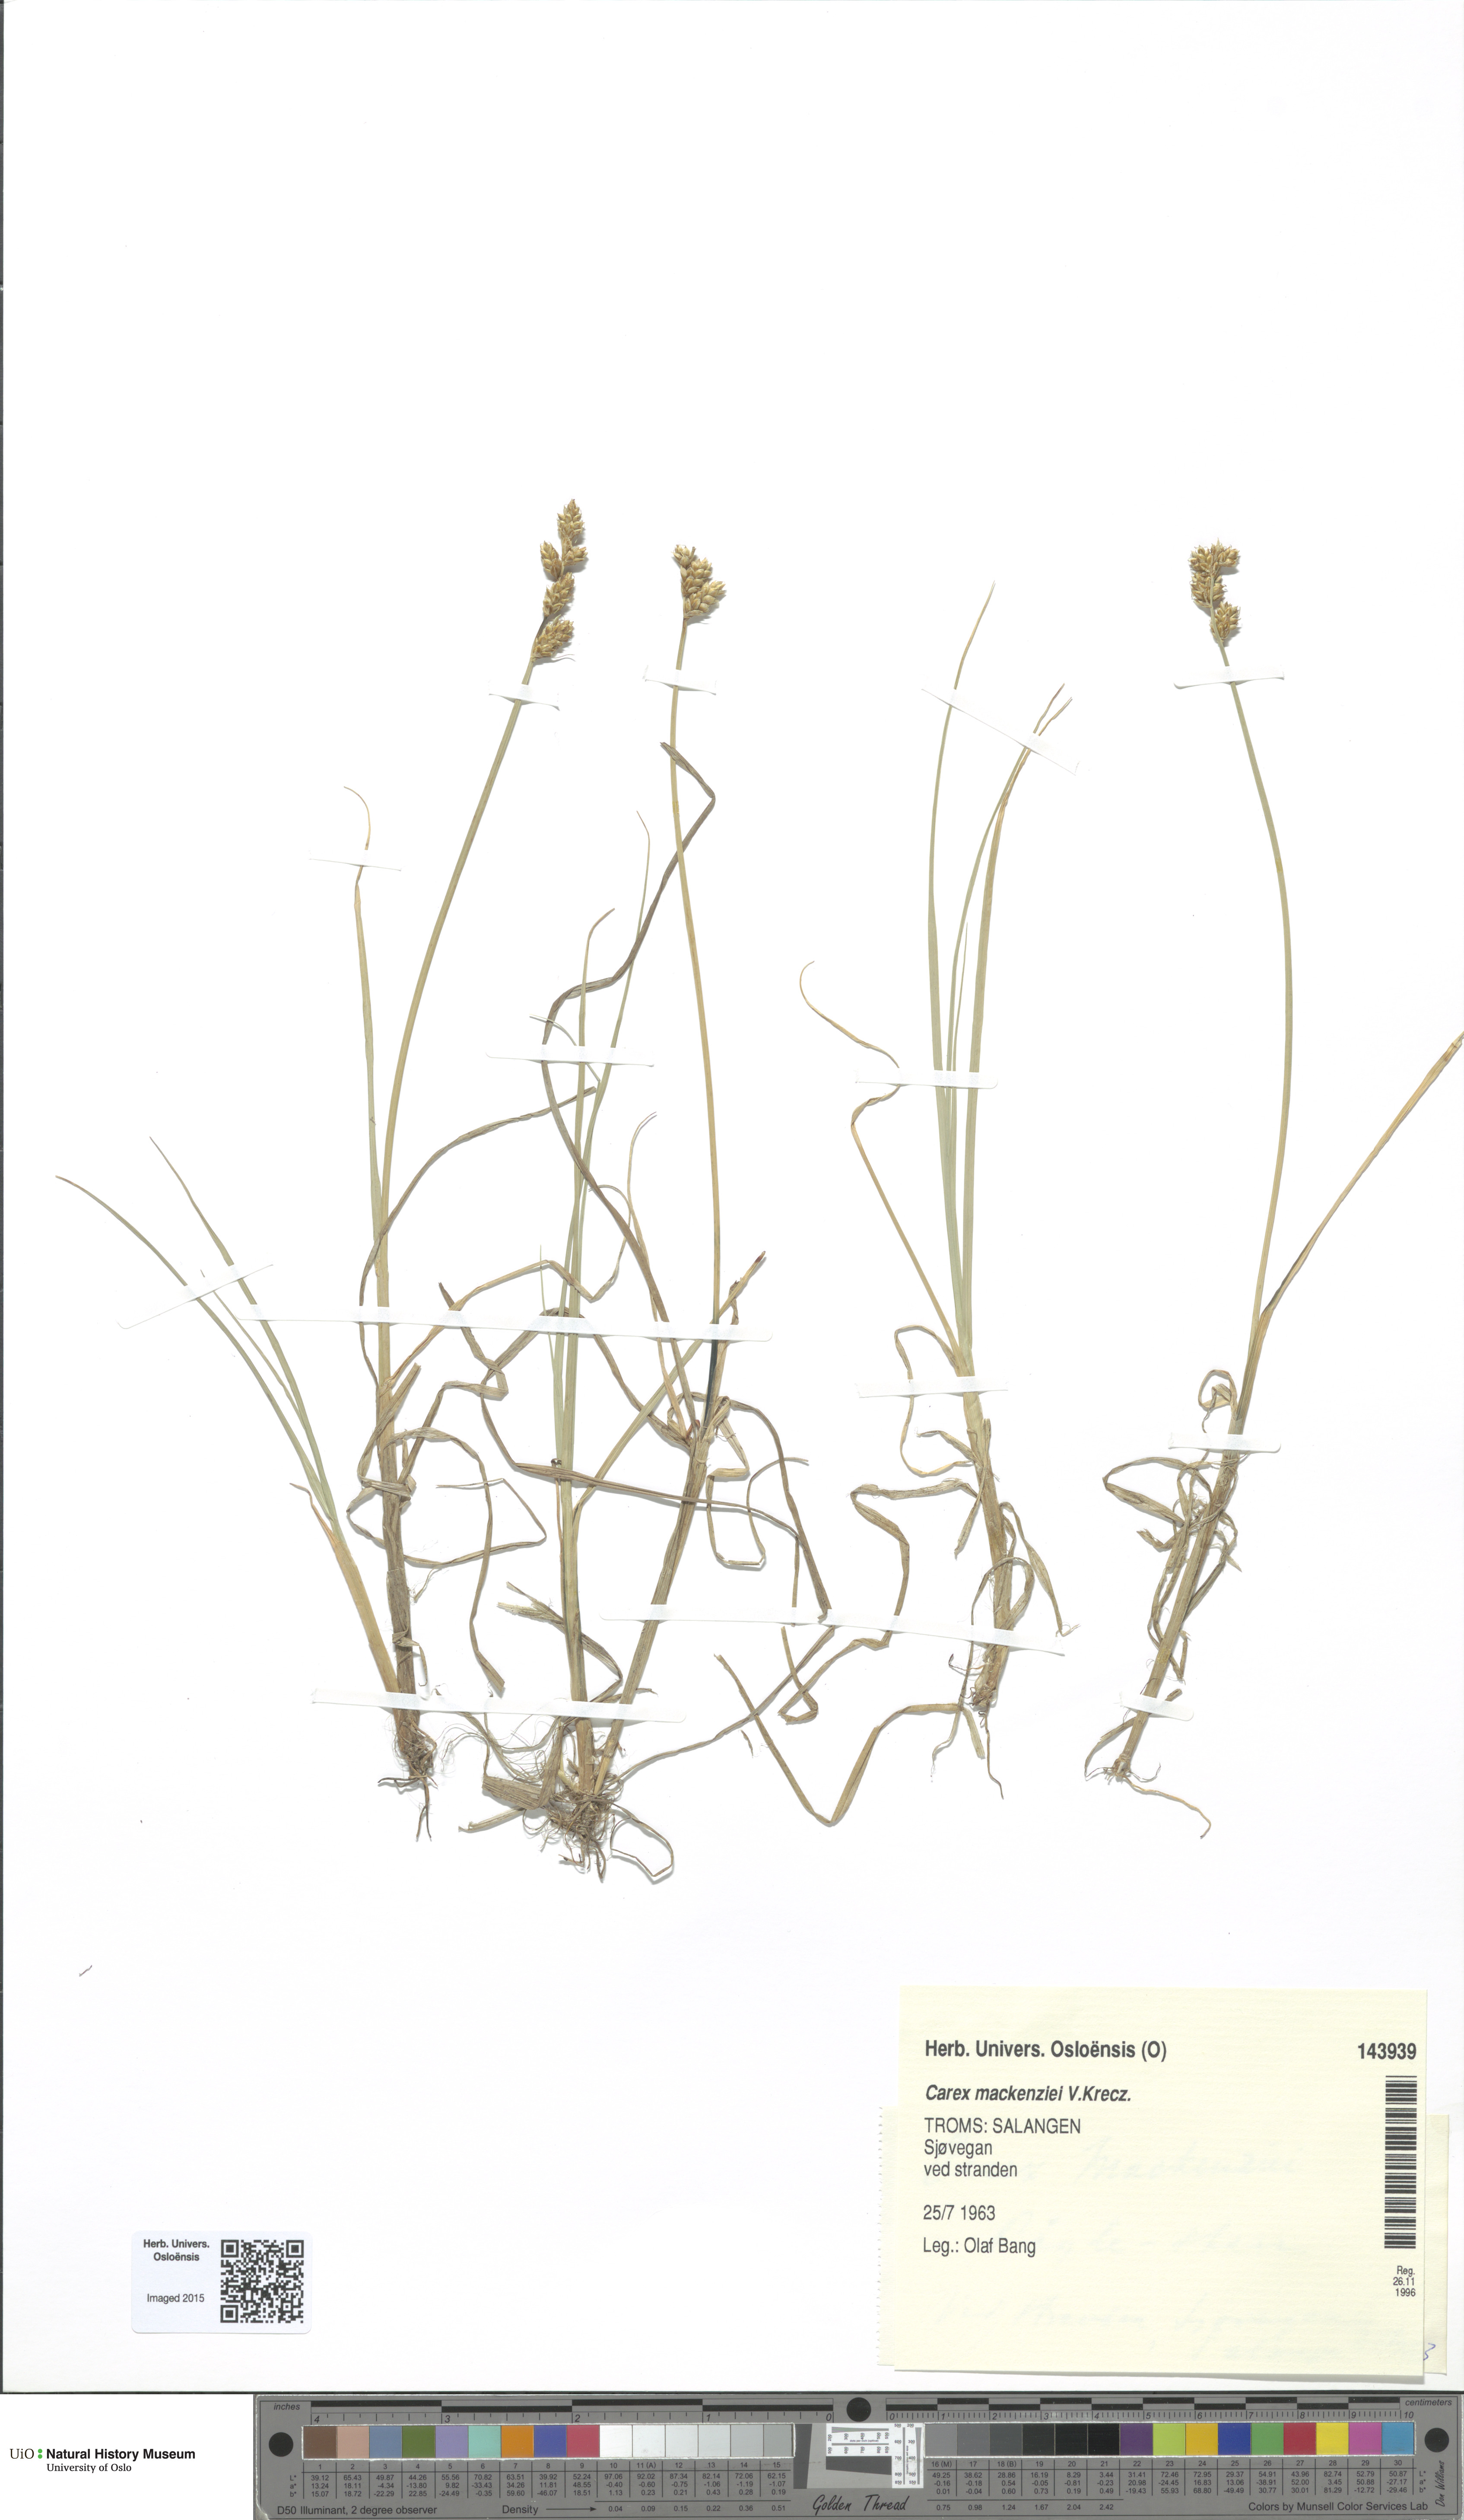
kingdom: Plantae
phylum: Tracheophyta
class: Liliopsida
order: Poales
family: Cyperaceae
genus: Carex
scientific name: Carex mackenziei
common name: Mackenzie's sedge
